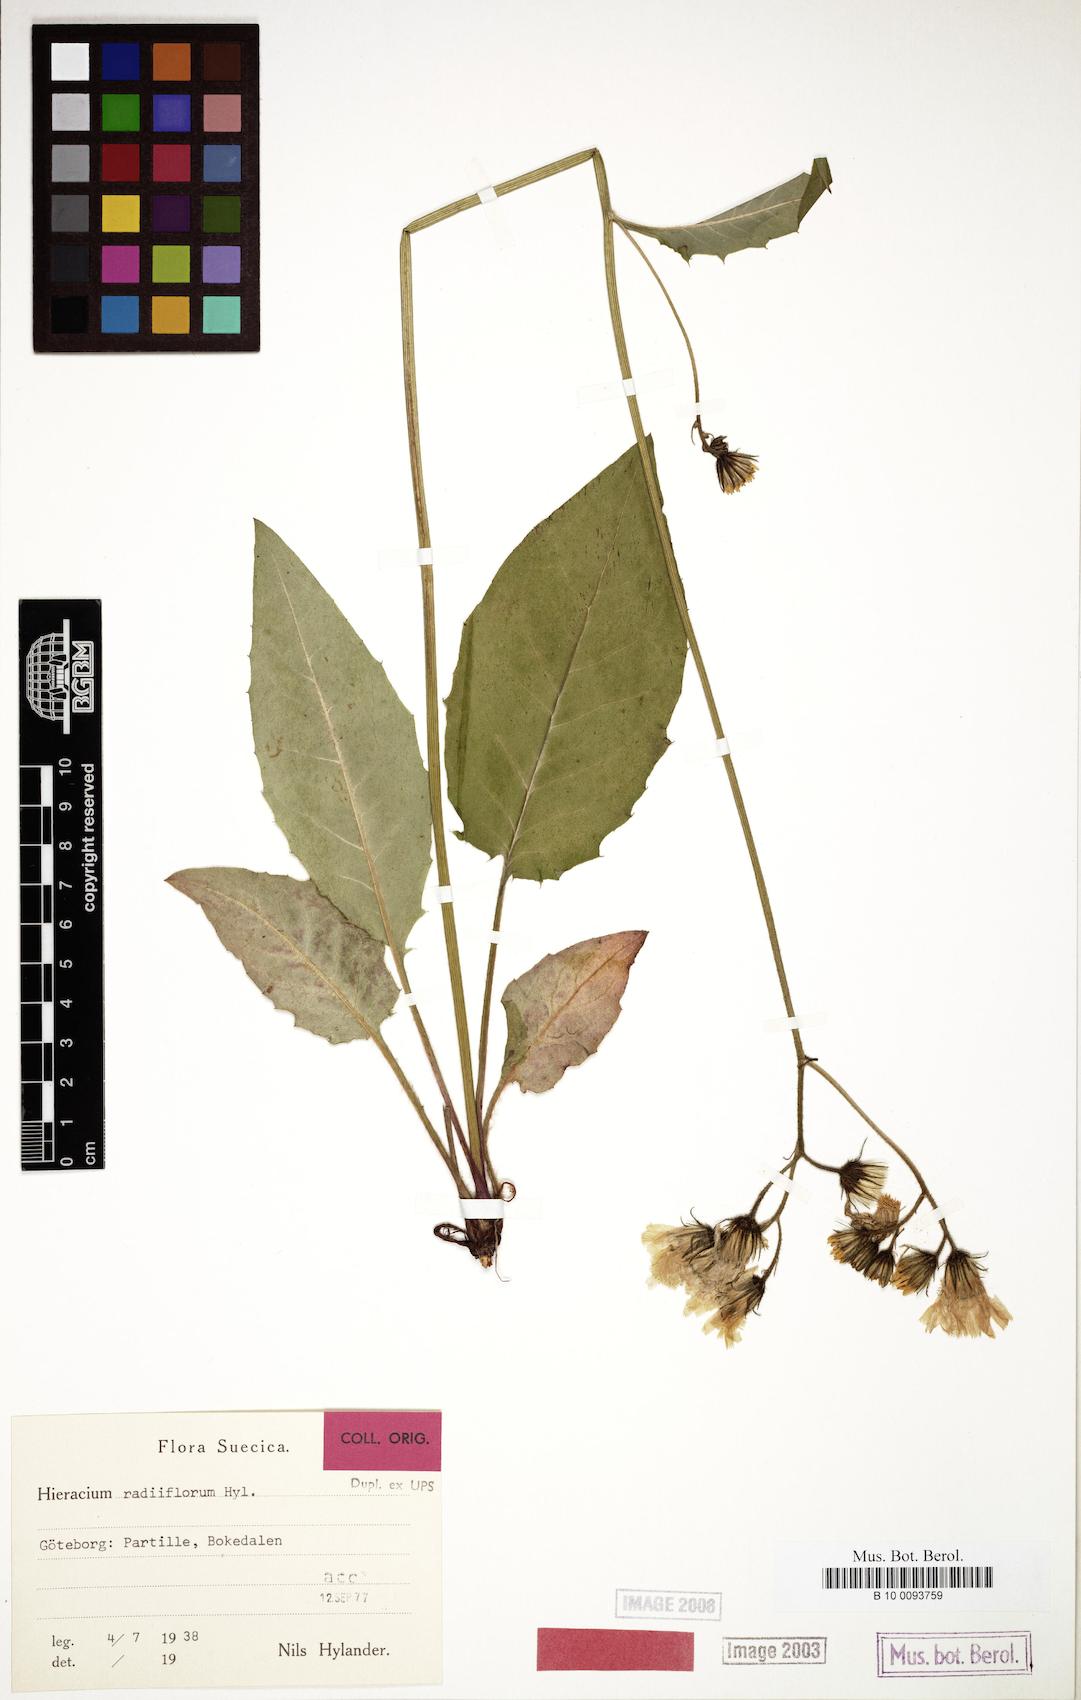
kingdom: Plantae
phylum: Tracheophyta
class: Magnoliopsida
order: Asterales
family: Asteraceae
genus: Hieracium
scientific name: Hieracium radiiflorum
